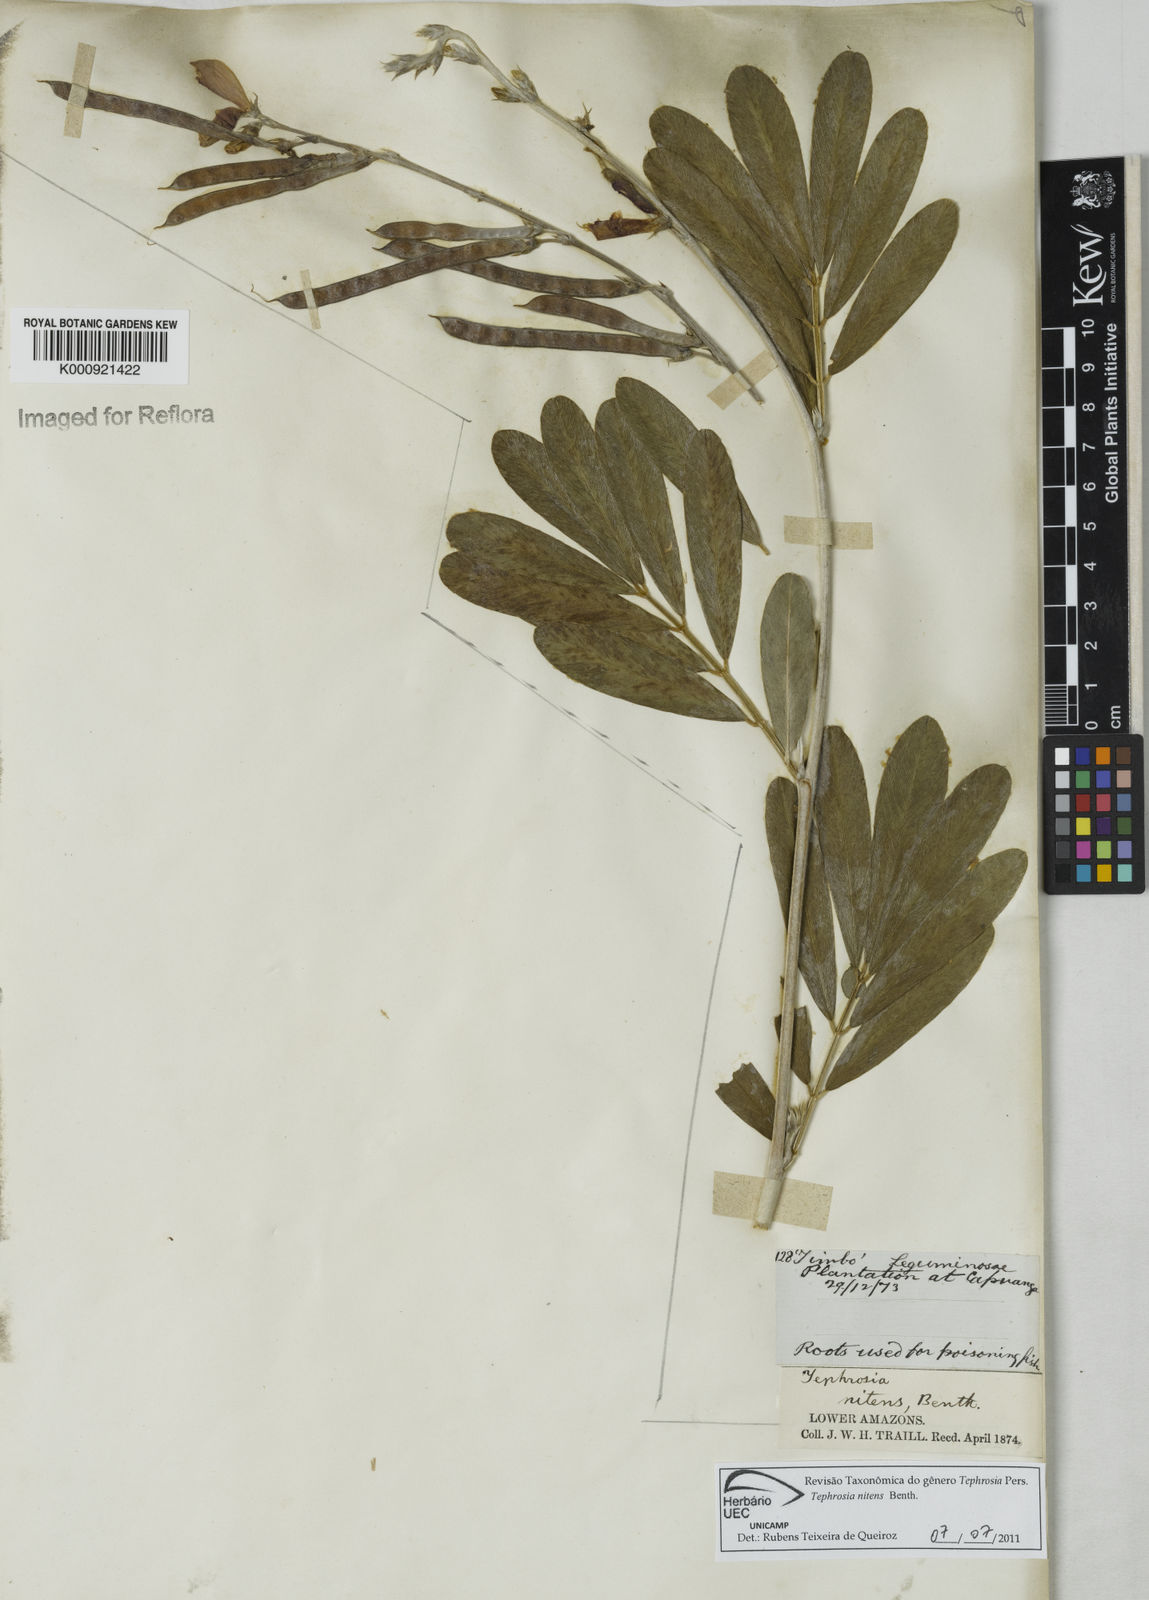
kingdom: Plantae
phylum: Tracheophyta
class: Magnoliopsida
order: Fabales
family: Fabaceae
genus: Tephrosia
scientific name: Tephrosia nitens
